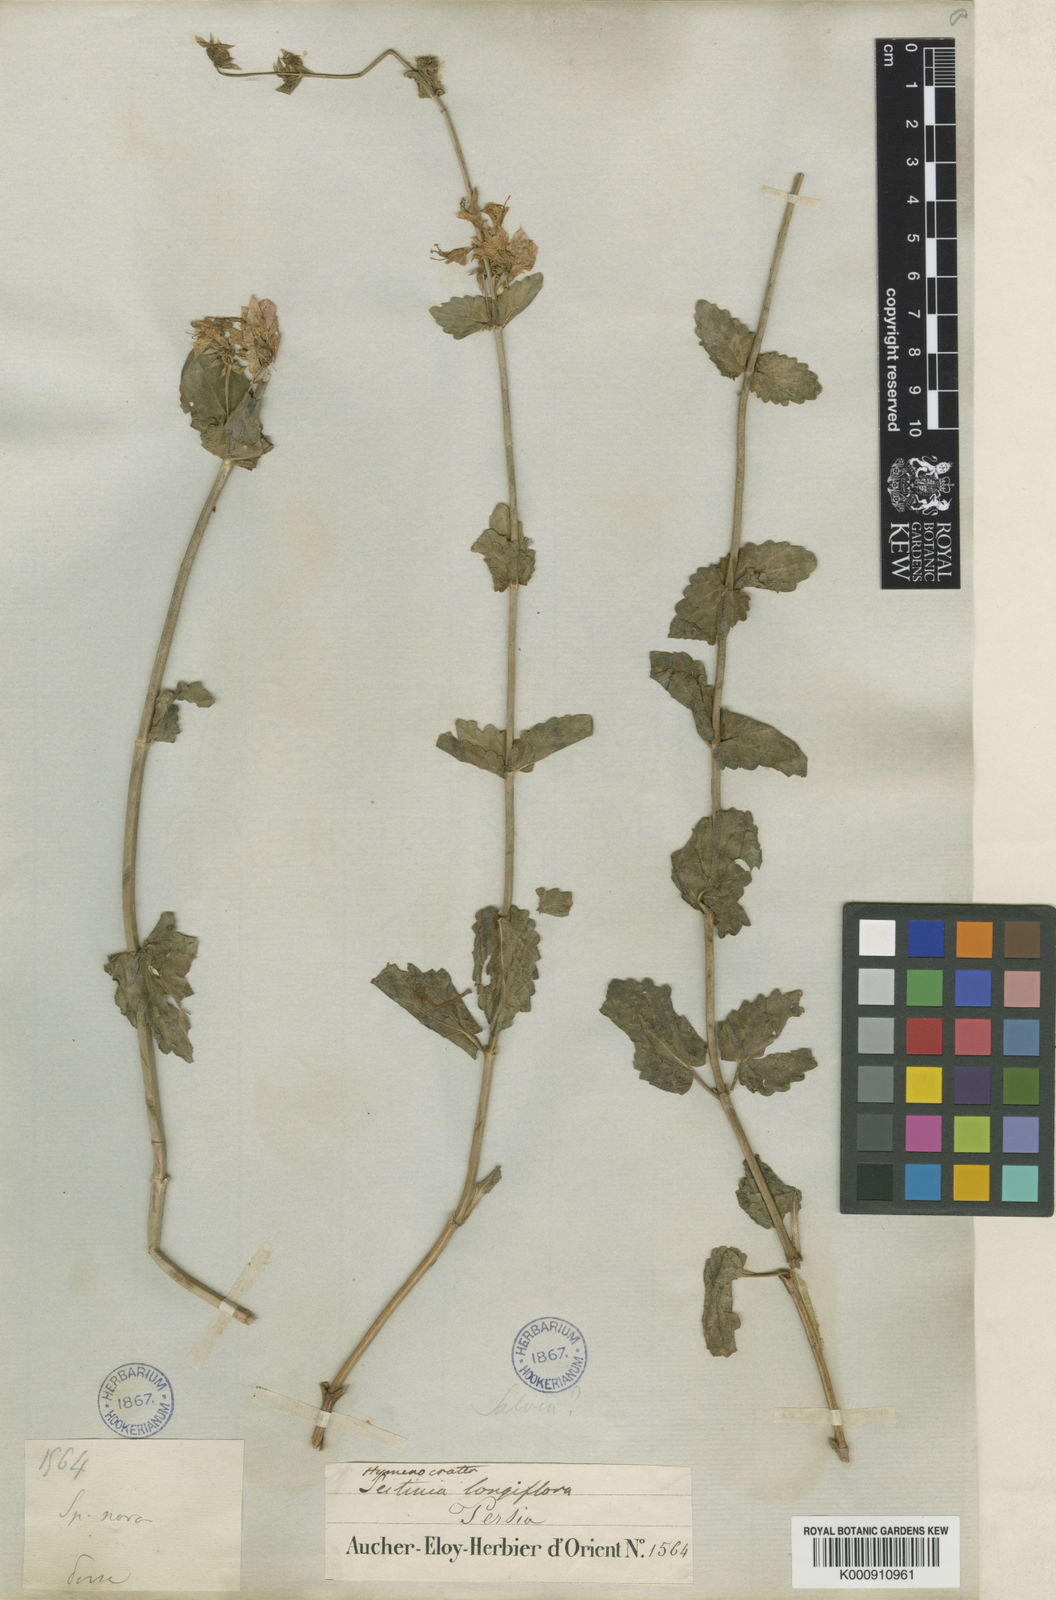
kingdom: Plantae
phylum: Tracheophyta
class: Magnoliopsida
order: Lamiales
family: Lamiaceae
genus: Nepeta
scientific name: Nepeta avromanica
